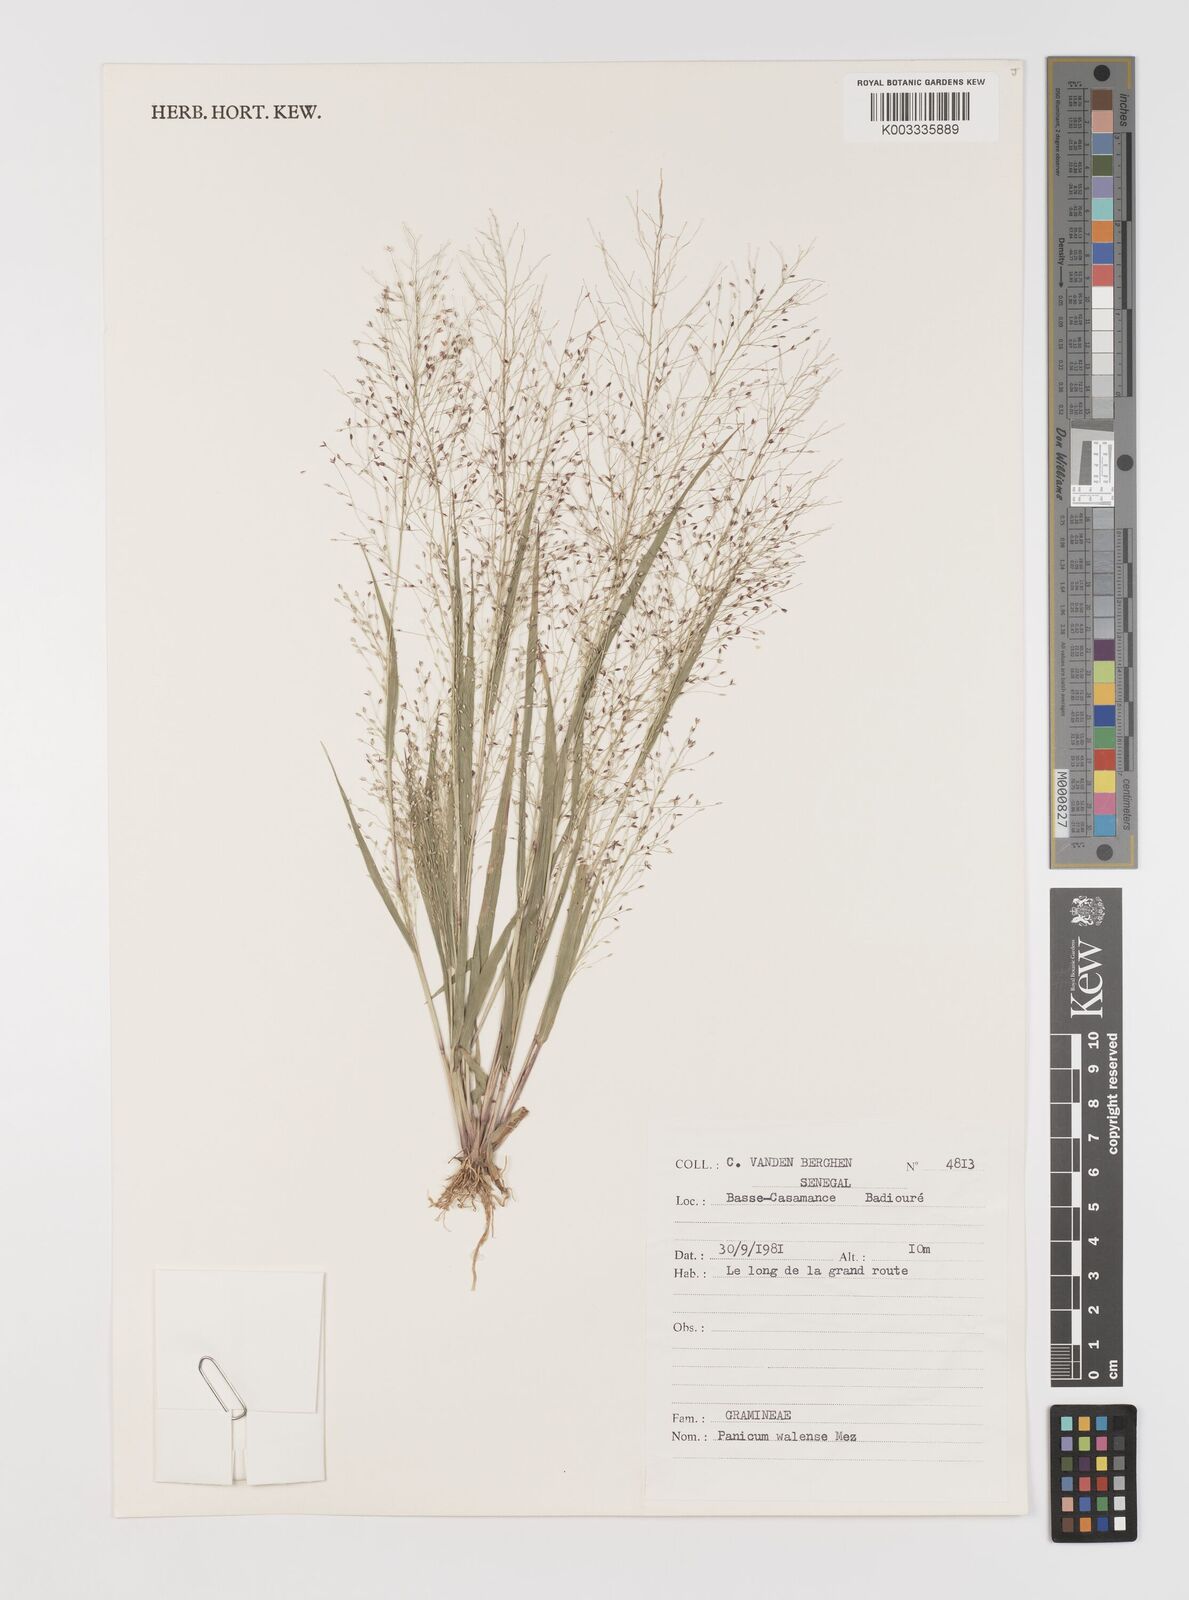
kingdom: Plantae
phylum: Tracheophyta
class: Liliopsida
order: Poales
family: Poaceae
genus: Panicum
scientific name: Panicum humile
